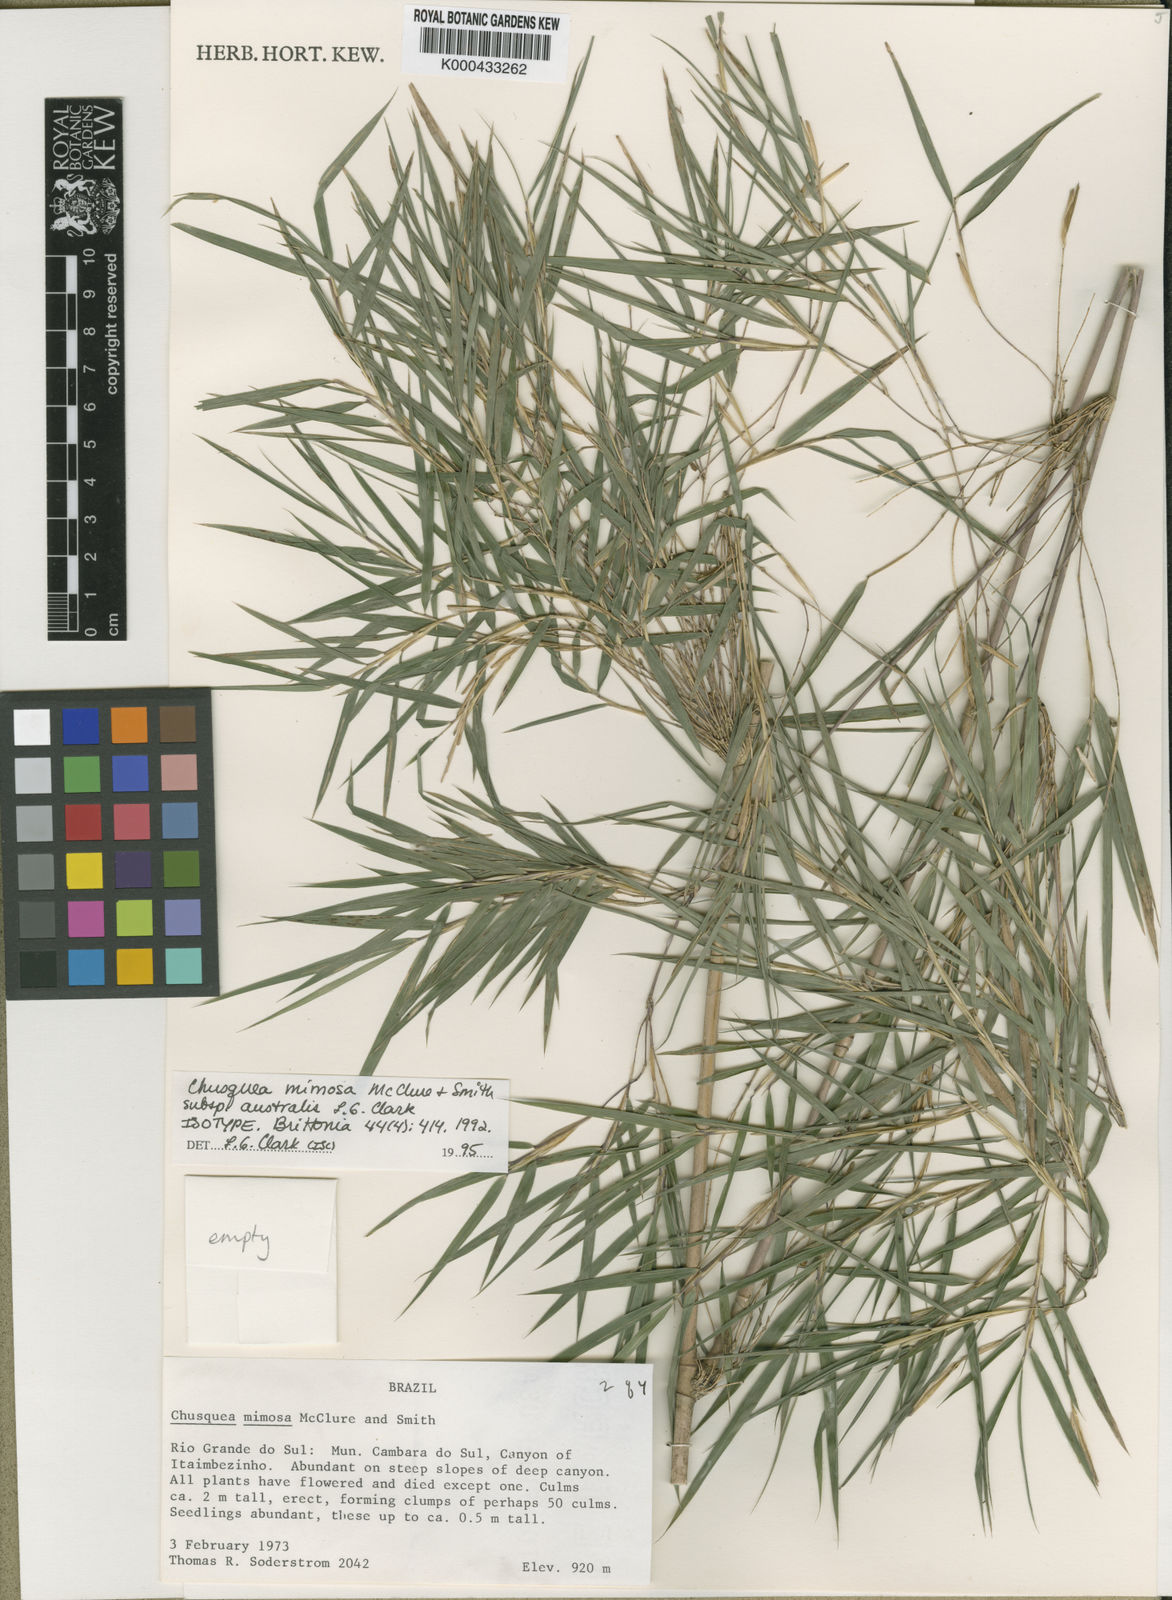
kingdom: Plantae
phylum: Tracheophyta
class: Liliopsida
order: Poales
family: Poaceae
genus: Chusquea
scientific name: Chusquea mimosa
